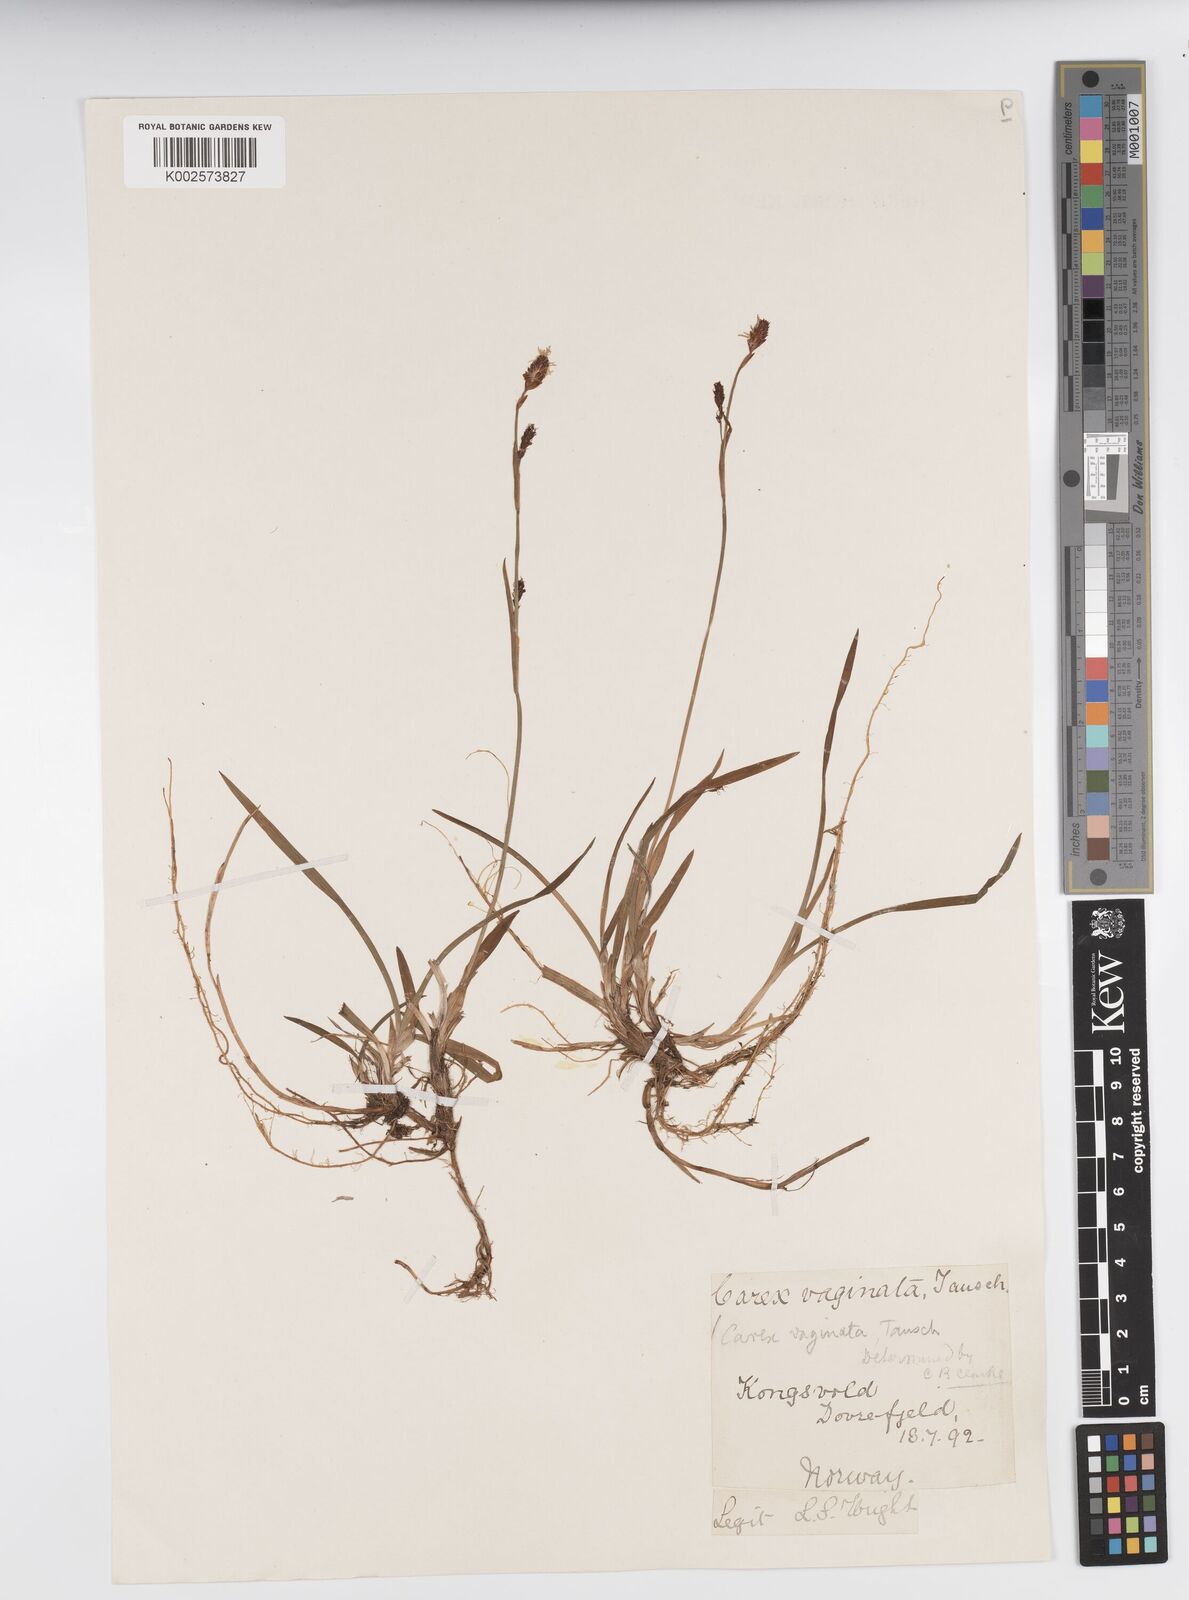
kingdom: Plantae
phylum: Tracheophyta
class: Liliopsida
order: Poales
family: Cyperaceae
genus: Carex
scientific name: Carex vaginata
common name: Sheathed sedge
